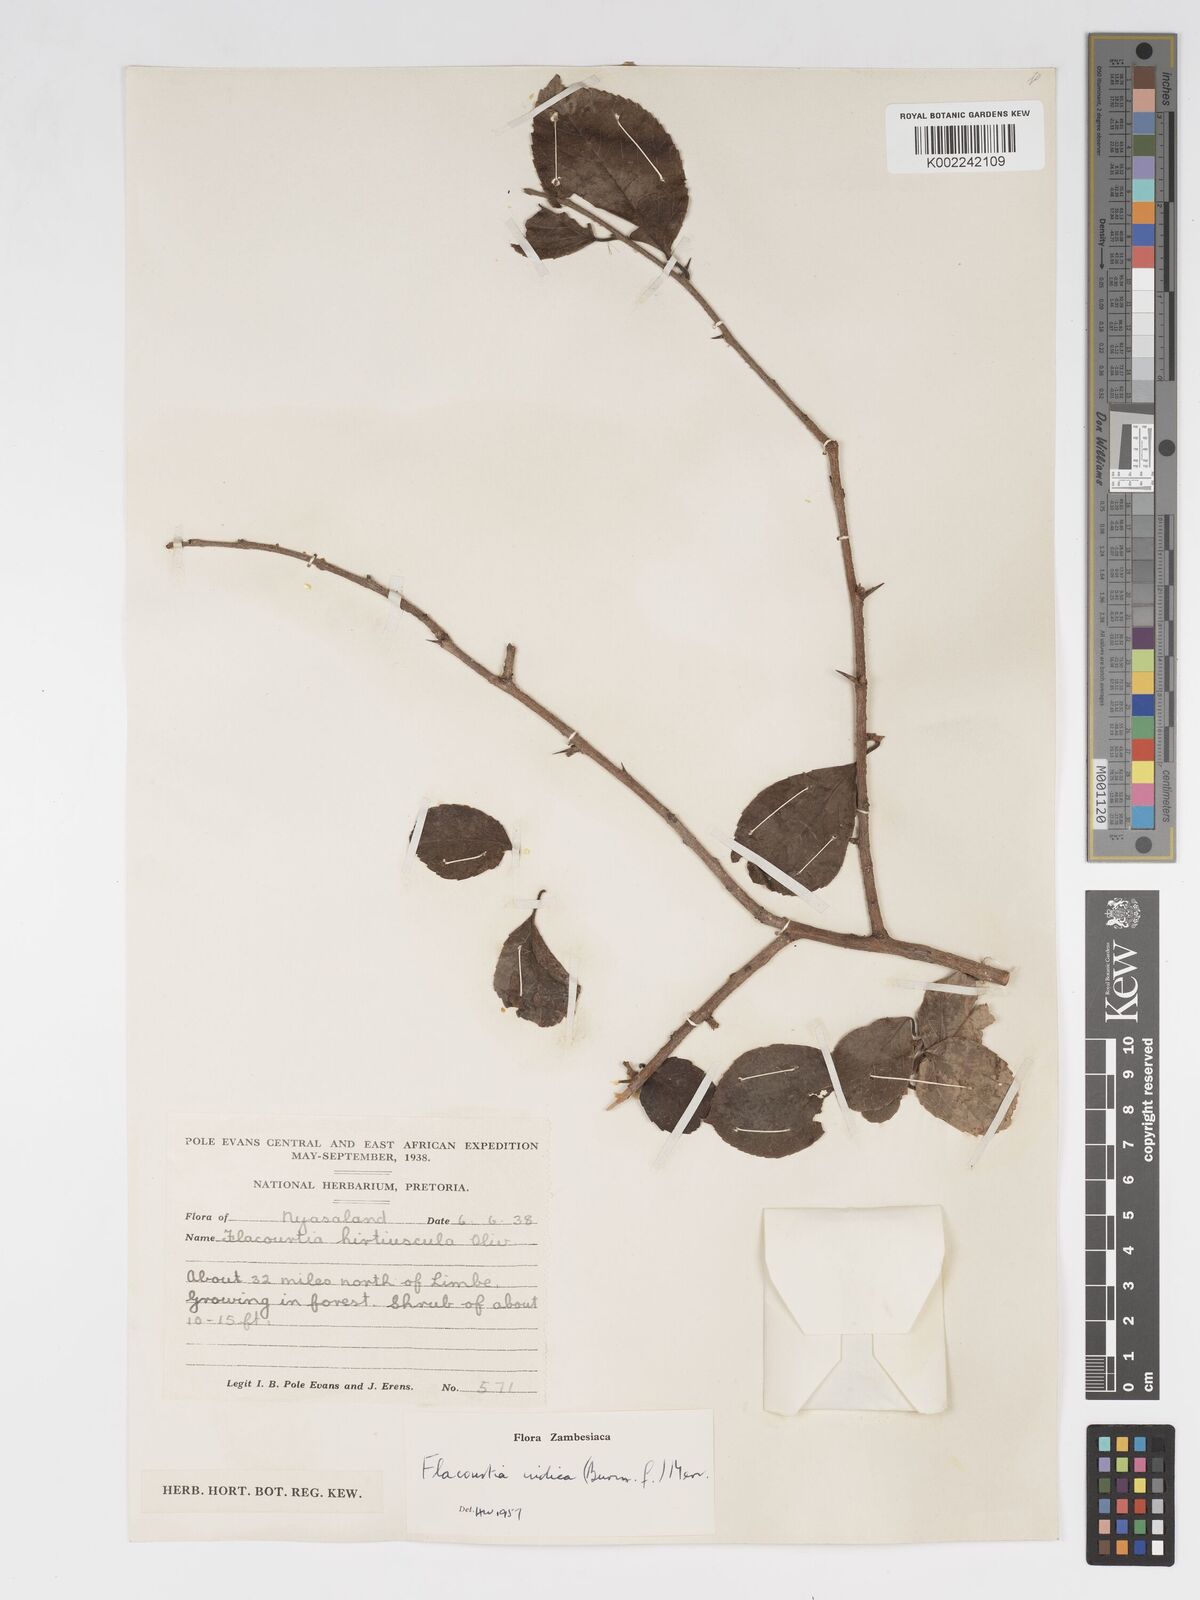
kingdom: Plantae
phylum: Tracheophyta
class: Magnoliopsida
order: Malpighiales
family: Salicaceae
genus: Flacourtia
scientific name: Flacourtia indica
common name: Governor's plum
